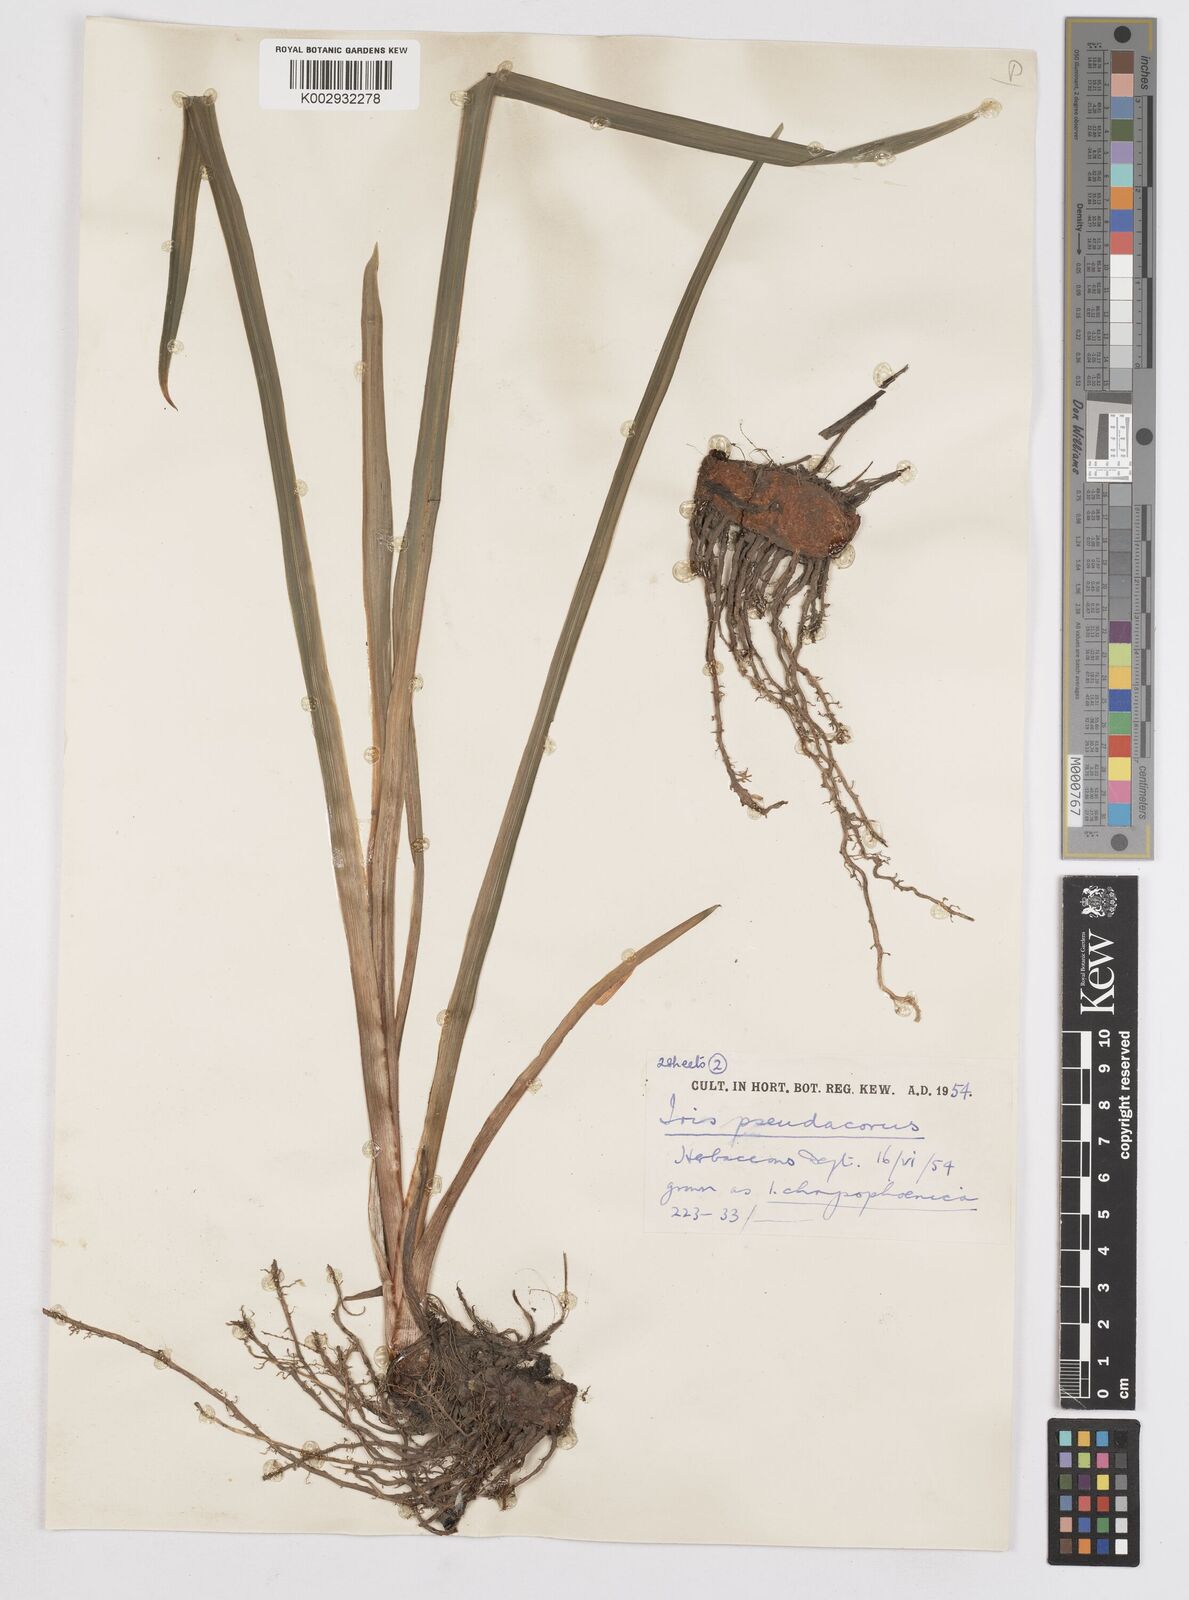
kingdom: Plantae
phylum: Tracheophyta
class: Liliopsida
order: Asparagales
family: Iridaceae
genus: Iris
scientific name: Iris
